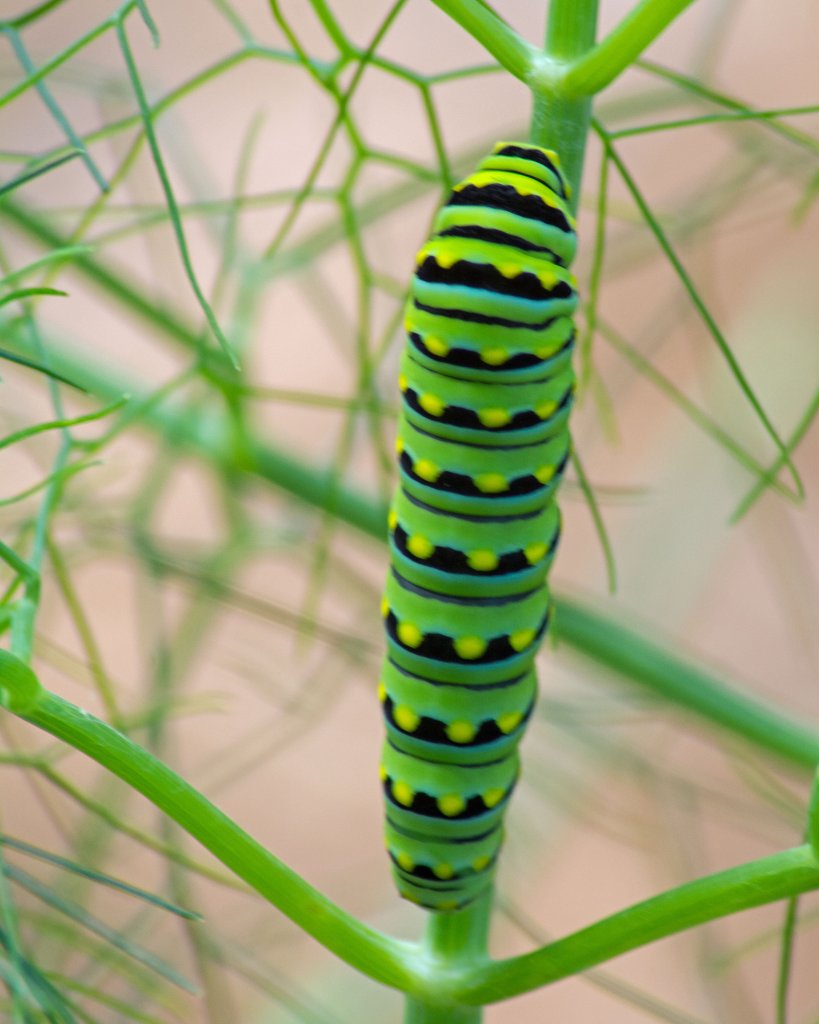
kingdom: Animalia
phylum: Arthropoda
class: Insecta
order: Lepidoptera
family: Papilionidae
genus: Papilio
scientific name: Papilio polyxenes
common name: Black Swallowtail
